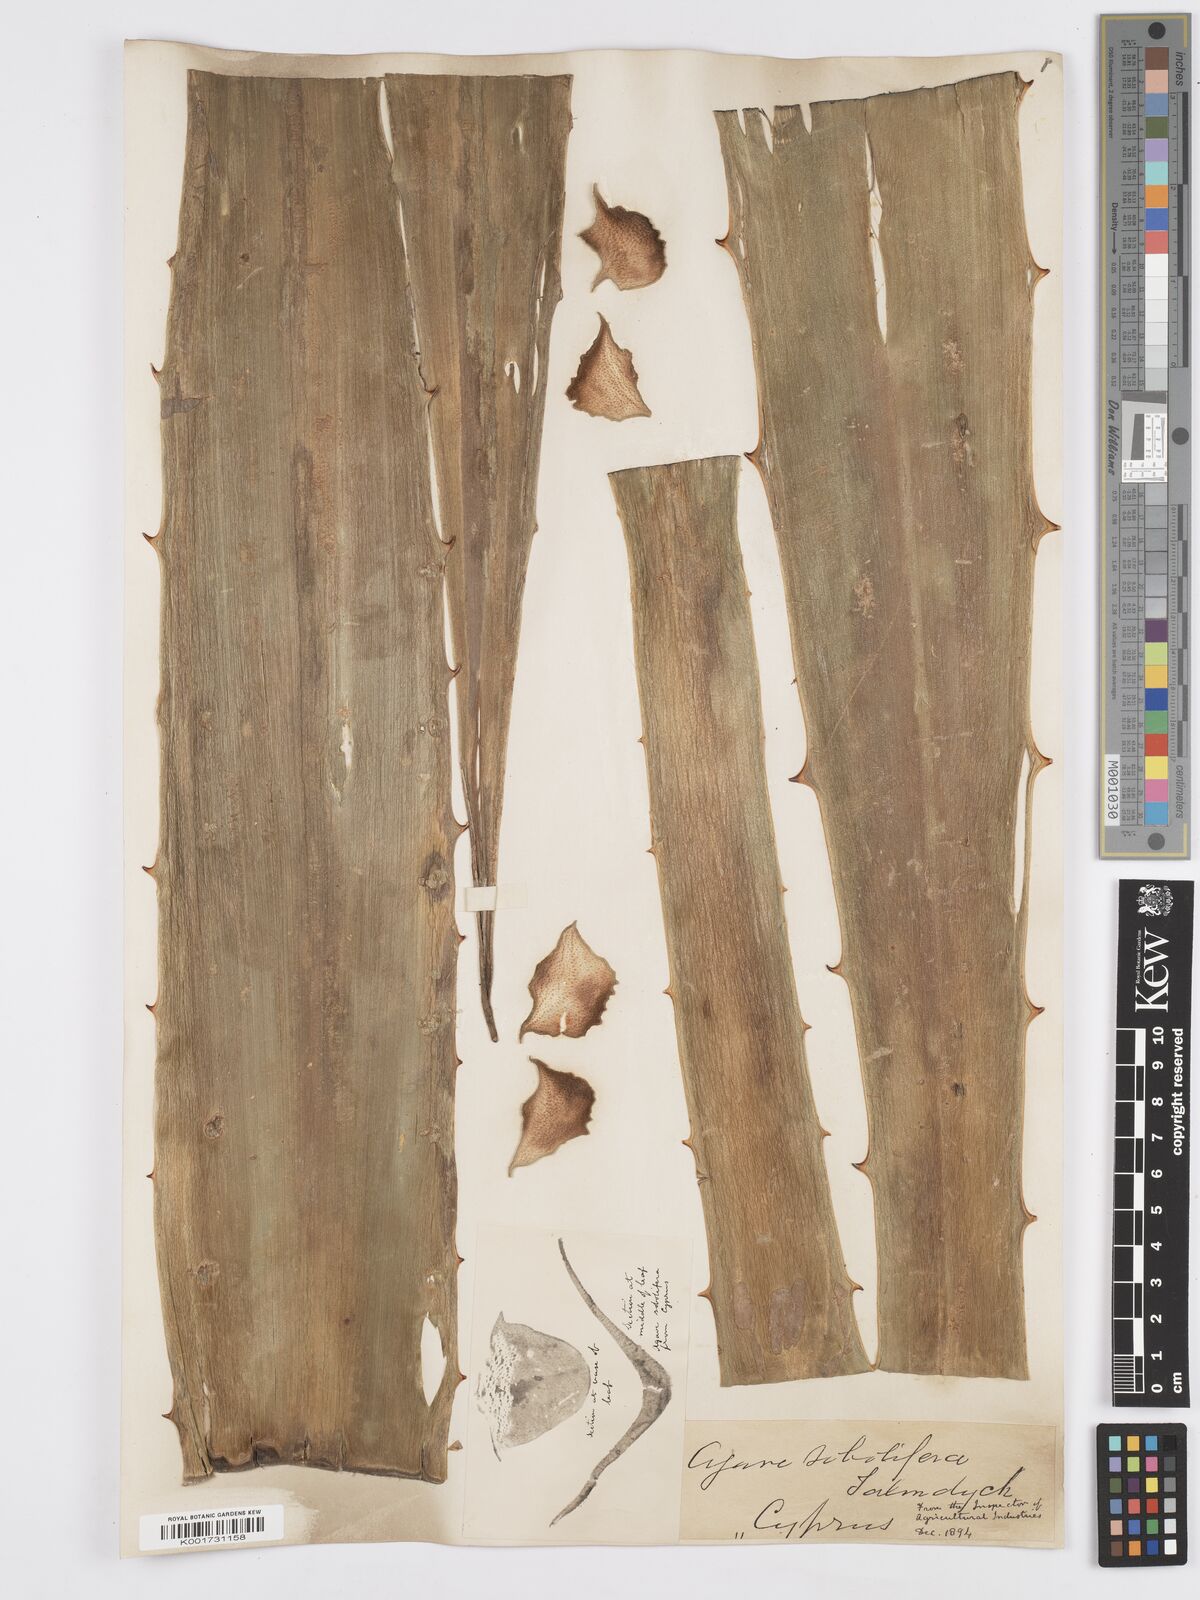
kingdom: Plantae
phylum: Tracheophyta
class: Liliopsida
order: Asparagales
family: Asparagaceae
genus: Agave
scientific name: Agave sobolifera
